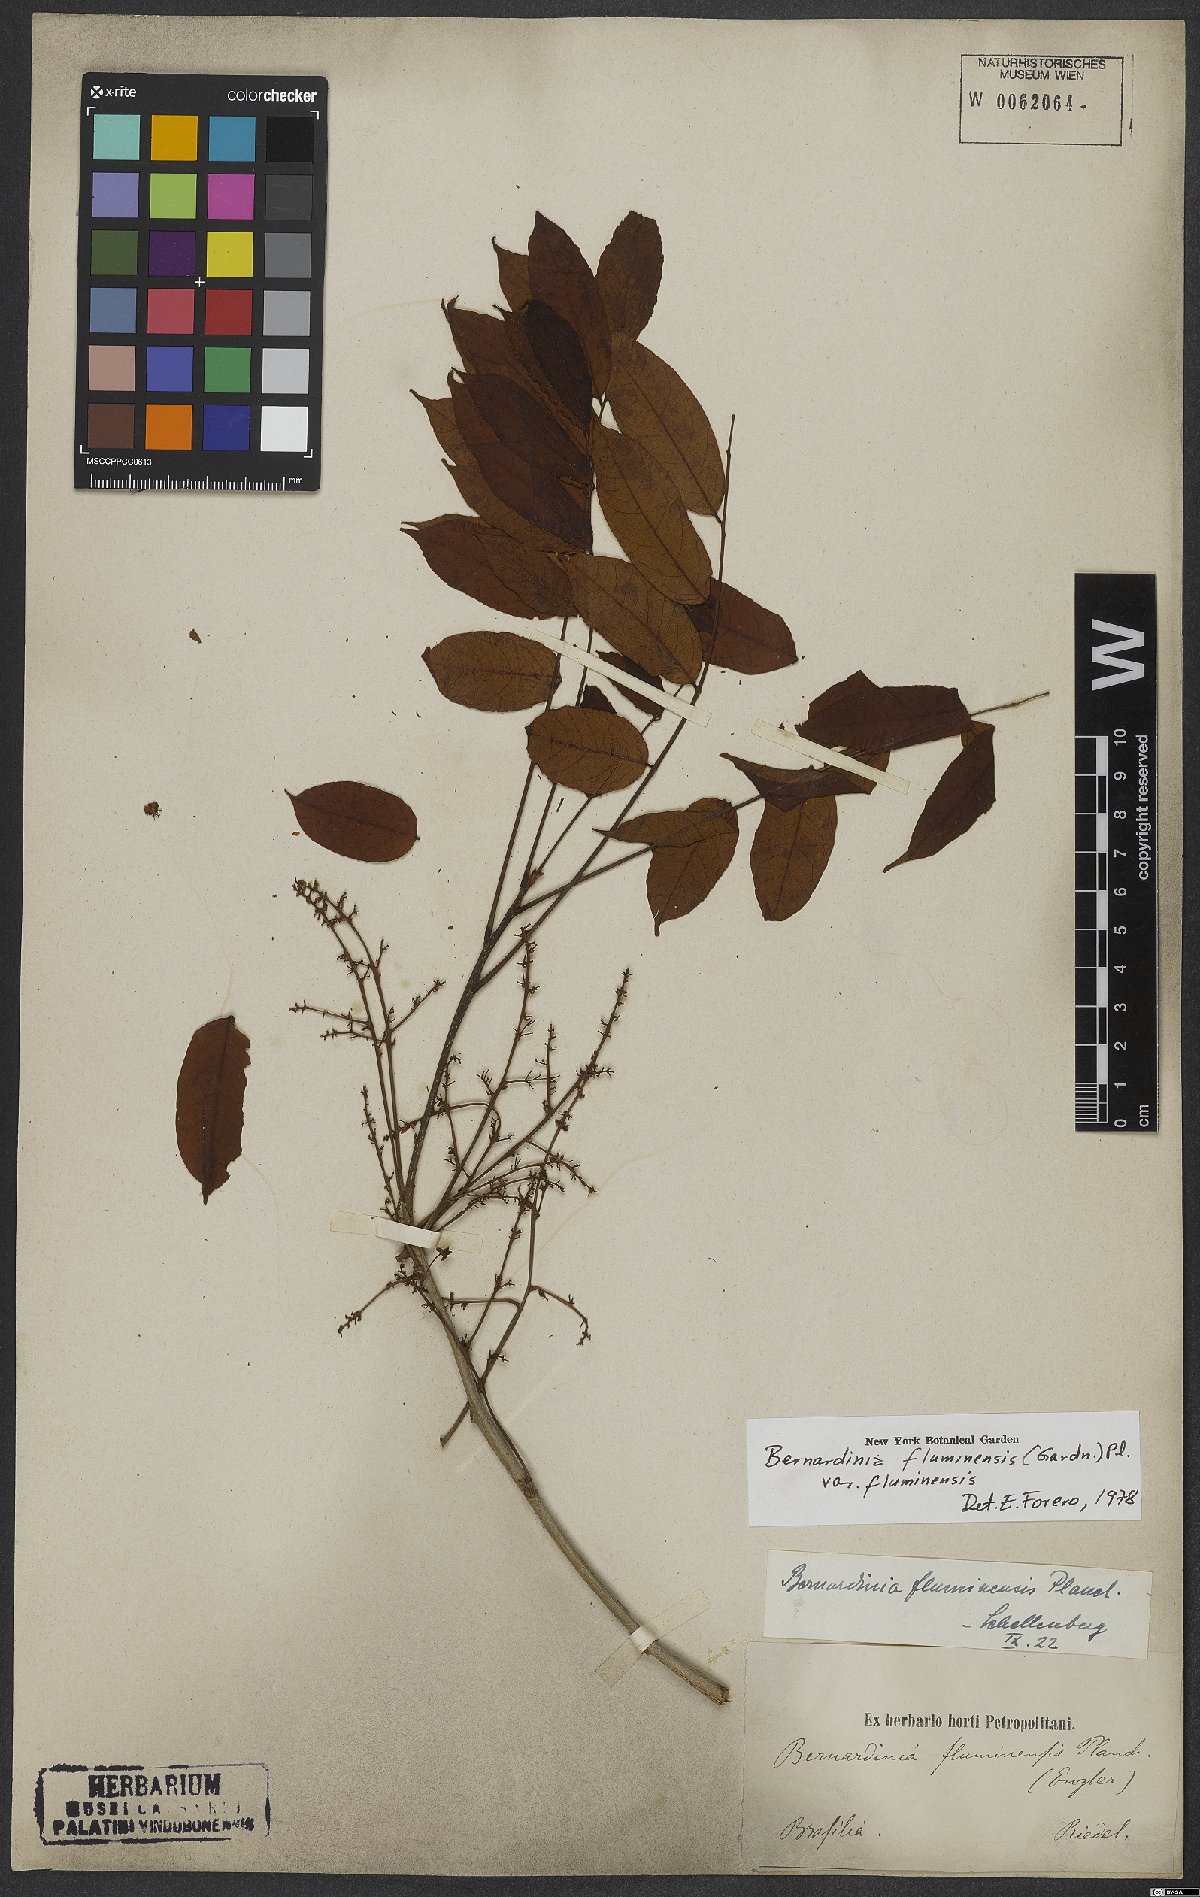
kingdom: Plantae
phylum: Tracheophyta
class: Magnoliopsida
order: Oxalidales
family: Connaraceae
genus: Rourea
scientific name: Rourea fluminensis
